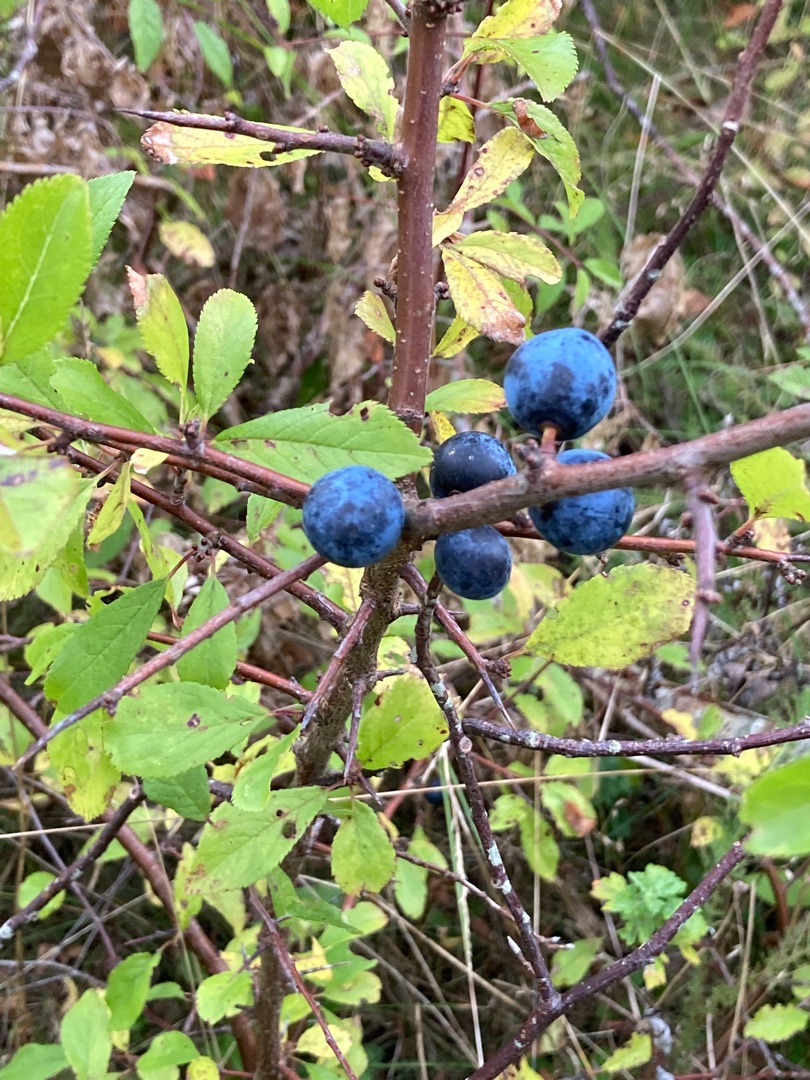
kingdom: Plantae
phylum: Tracheophyta
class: Magnoliopsida
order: Rosales
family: Rosaceae
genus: Prunus
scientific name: Prunus spinosa
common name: Slåen
